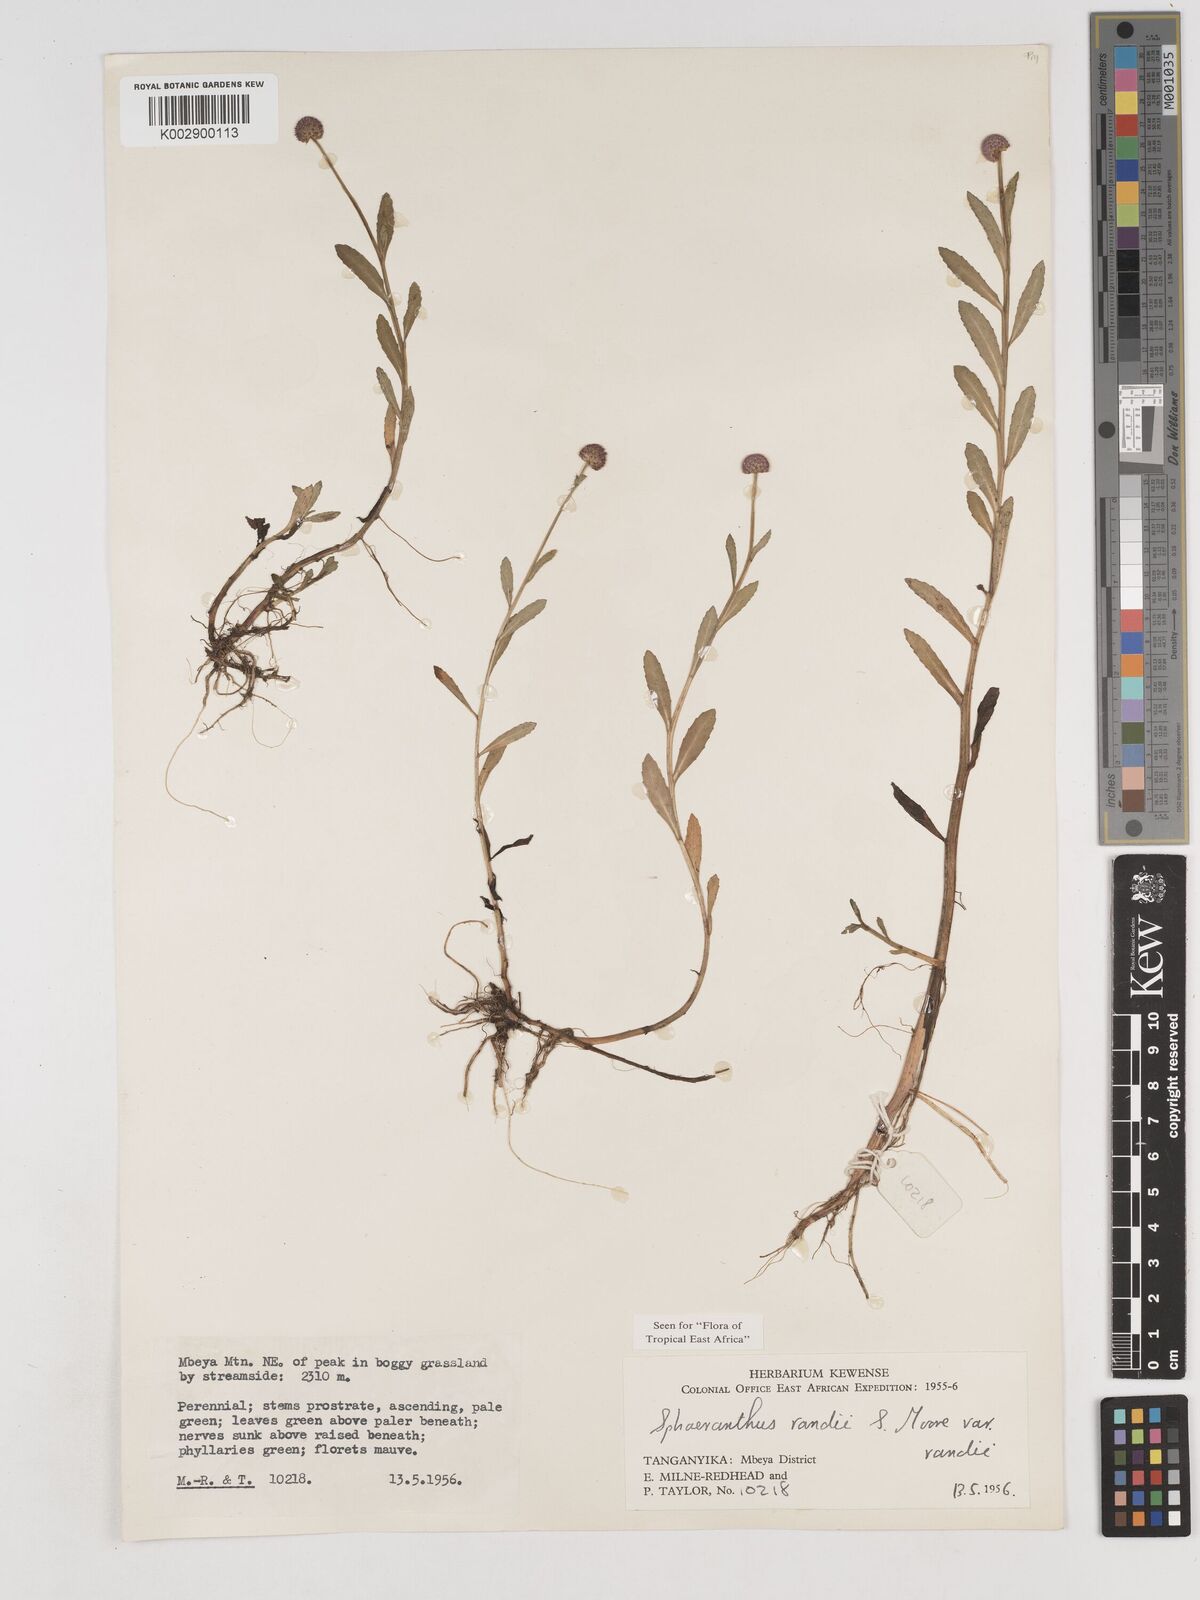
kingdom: Plantae
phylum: Tracheophyta
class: Magnoliopsida
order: Asterales
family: Asteraceae
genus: Sphaeranthus
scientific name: Sphaeranthus randii
